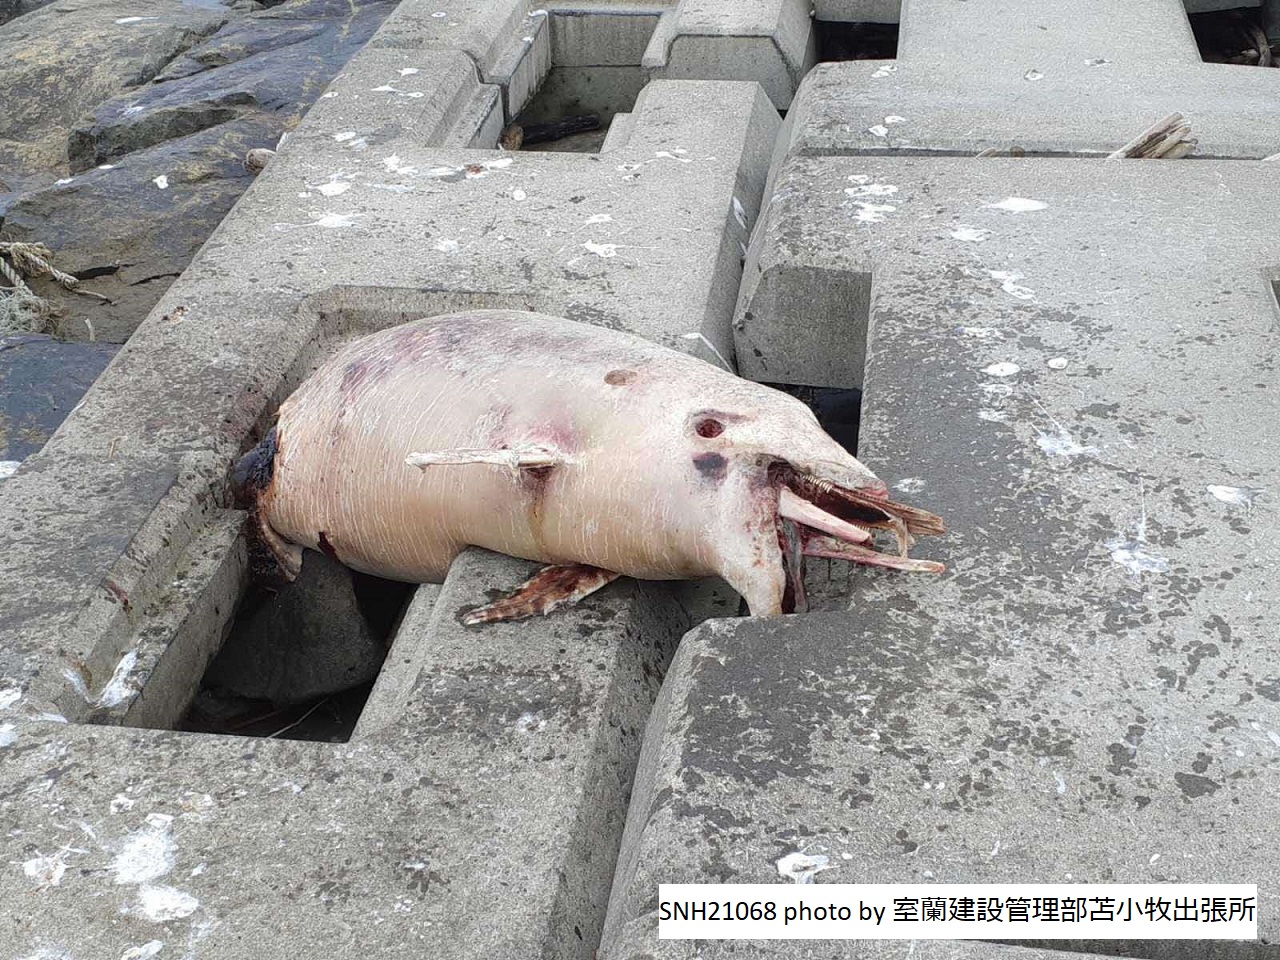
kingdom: Animalia
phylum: Chordata
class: Mammalia
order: Cetacea
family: Delphinidae
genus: Stenella
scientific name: Stenella coeruleoalba
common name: Striped dolphin
